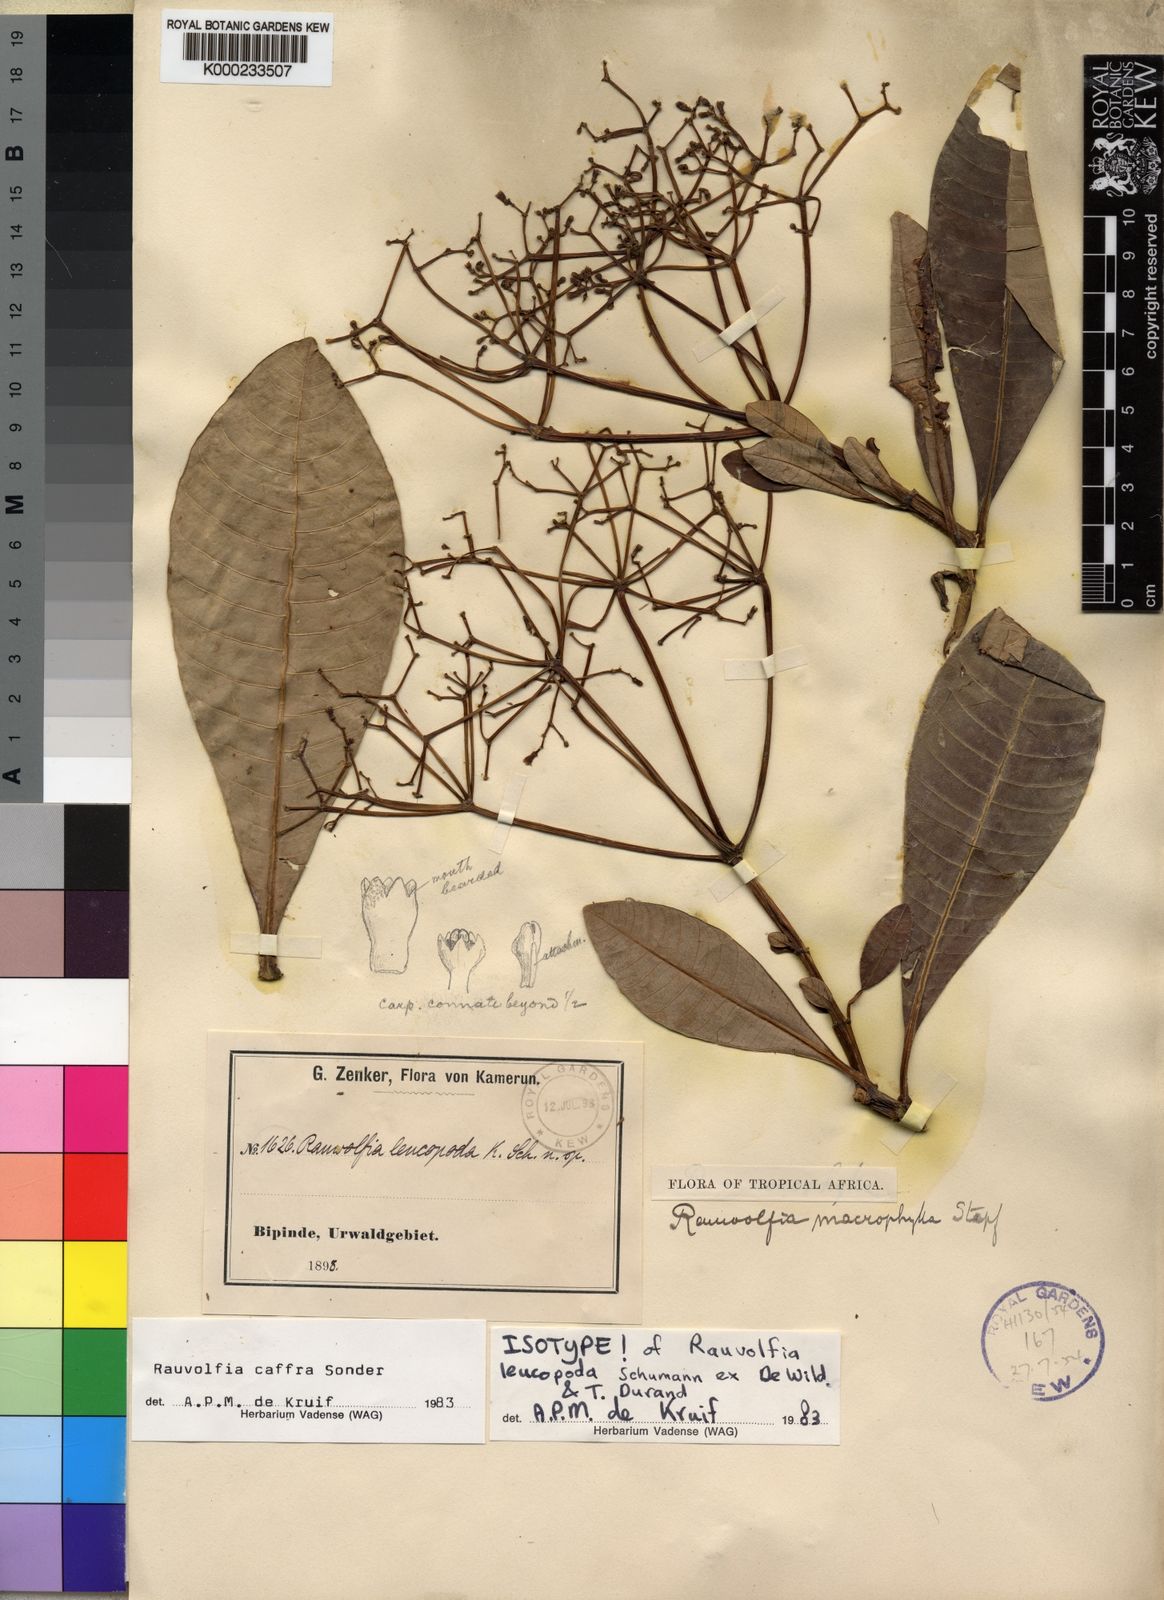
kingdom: Plantae
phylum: Tracheophyta
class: Magnoliopsida
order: Gentianales
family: Apocynaceae
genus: Rauvolfia
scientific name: Rauvolfia caffra
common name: Quininetree
